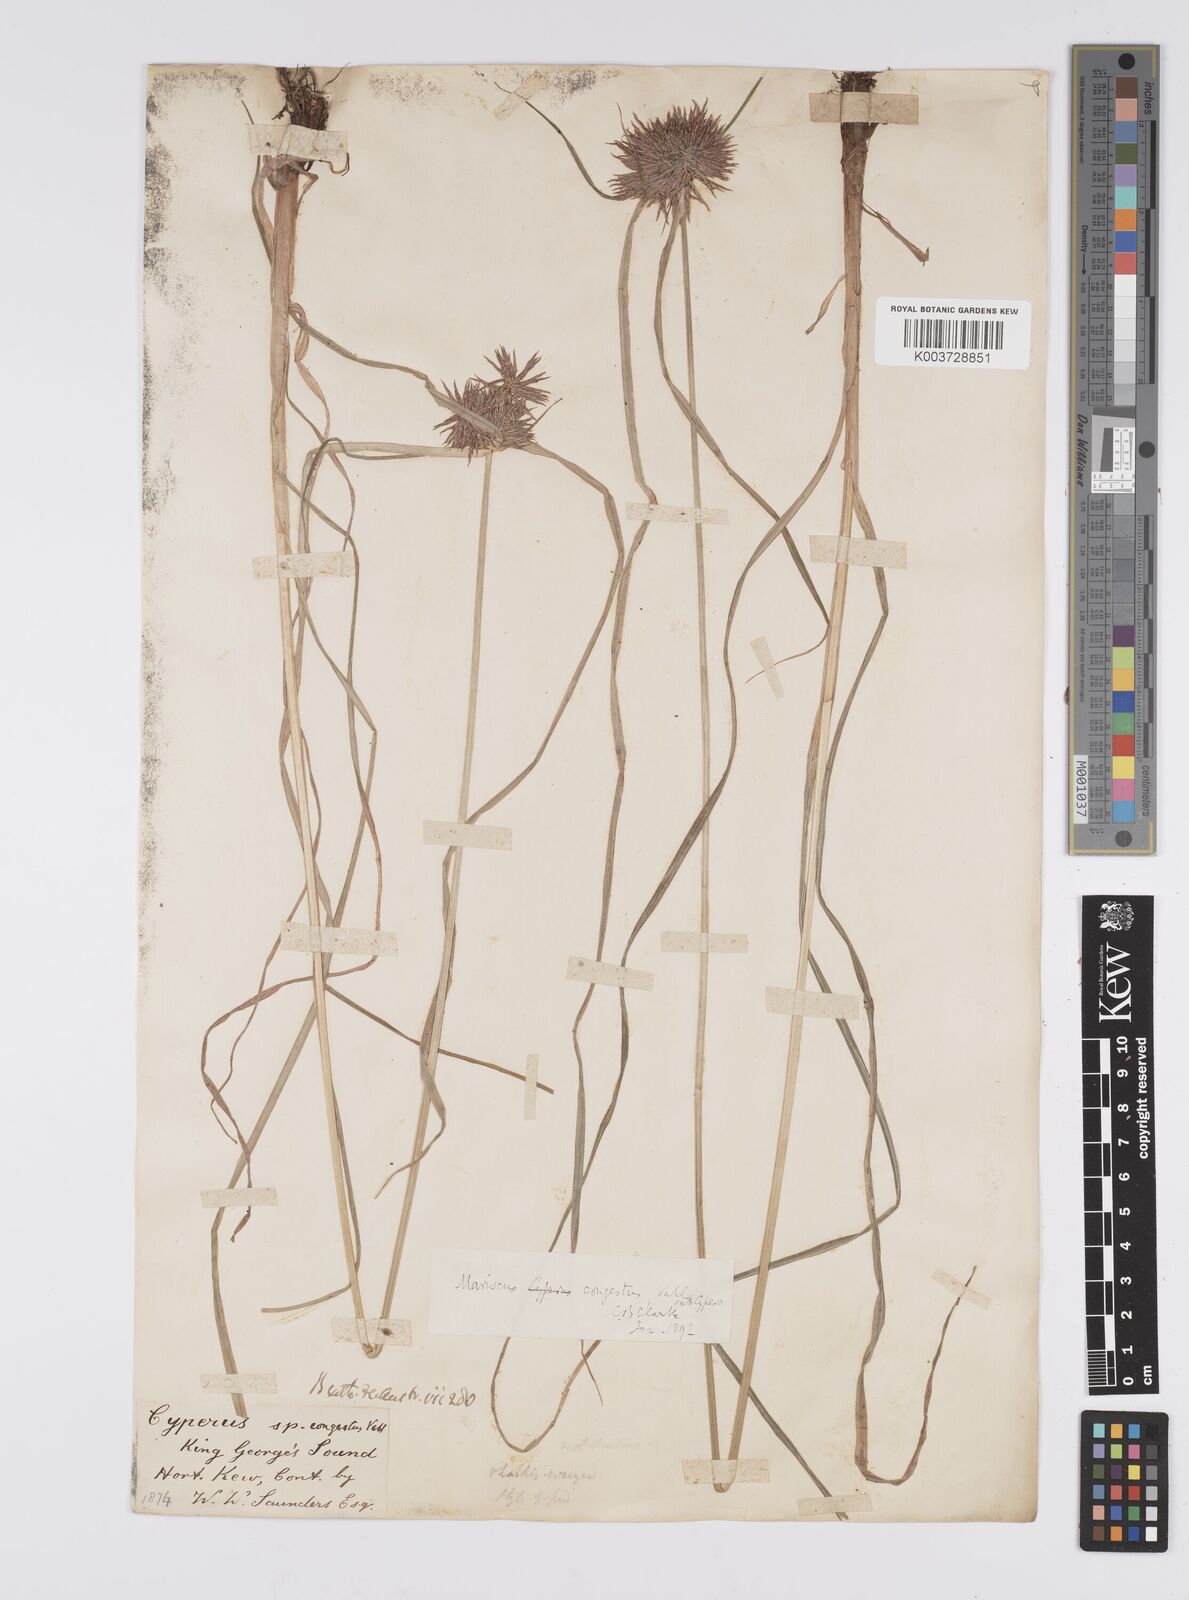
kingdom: Plantae
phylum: Tracheophyta
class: Liliopsida
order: Poales
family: Cyperaceae
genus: Cyperus
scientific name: Cyperus congestus
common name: Dense flat sedge
